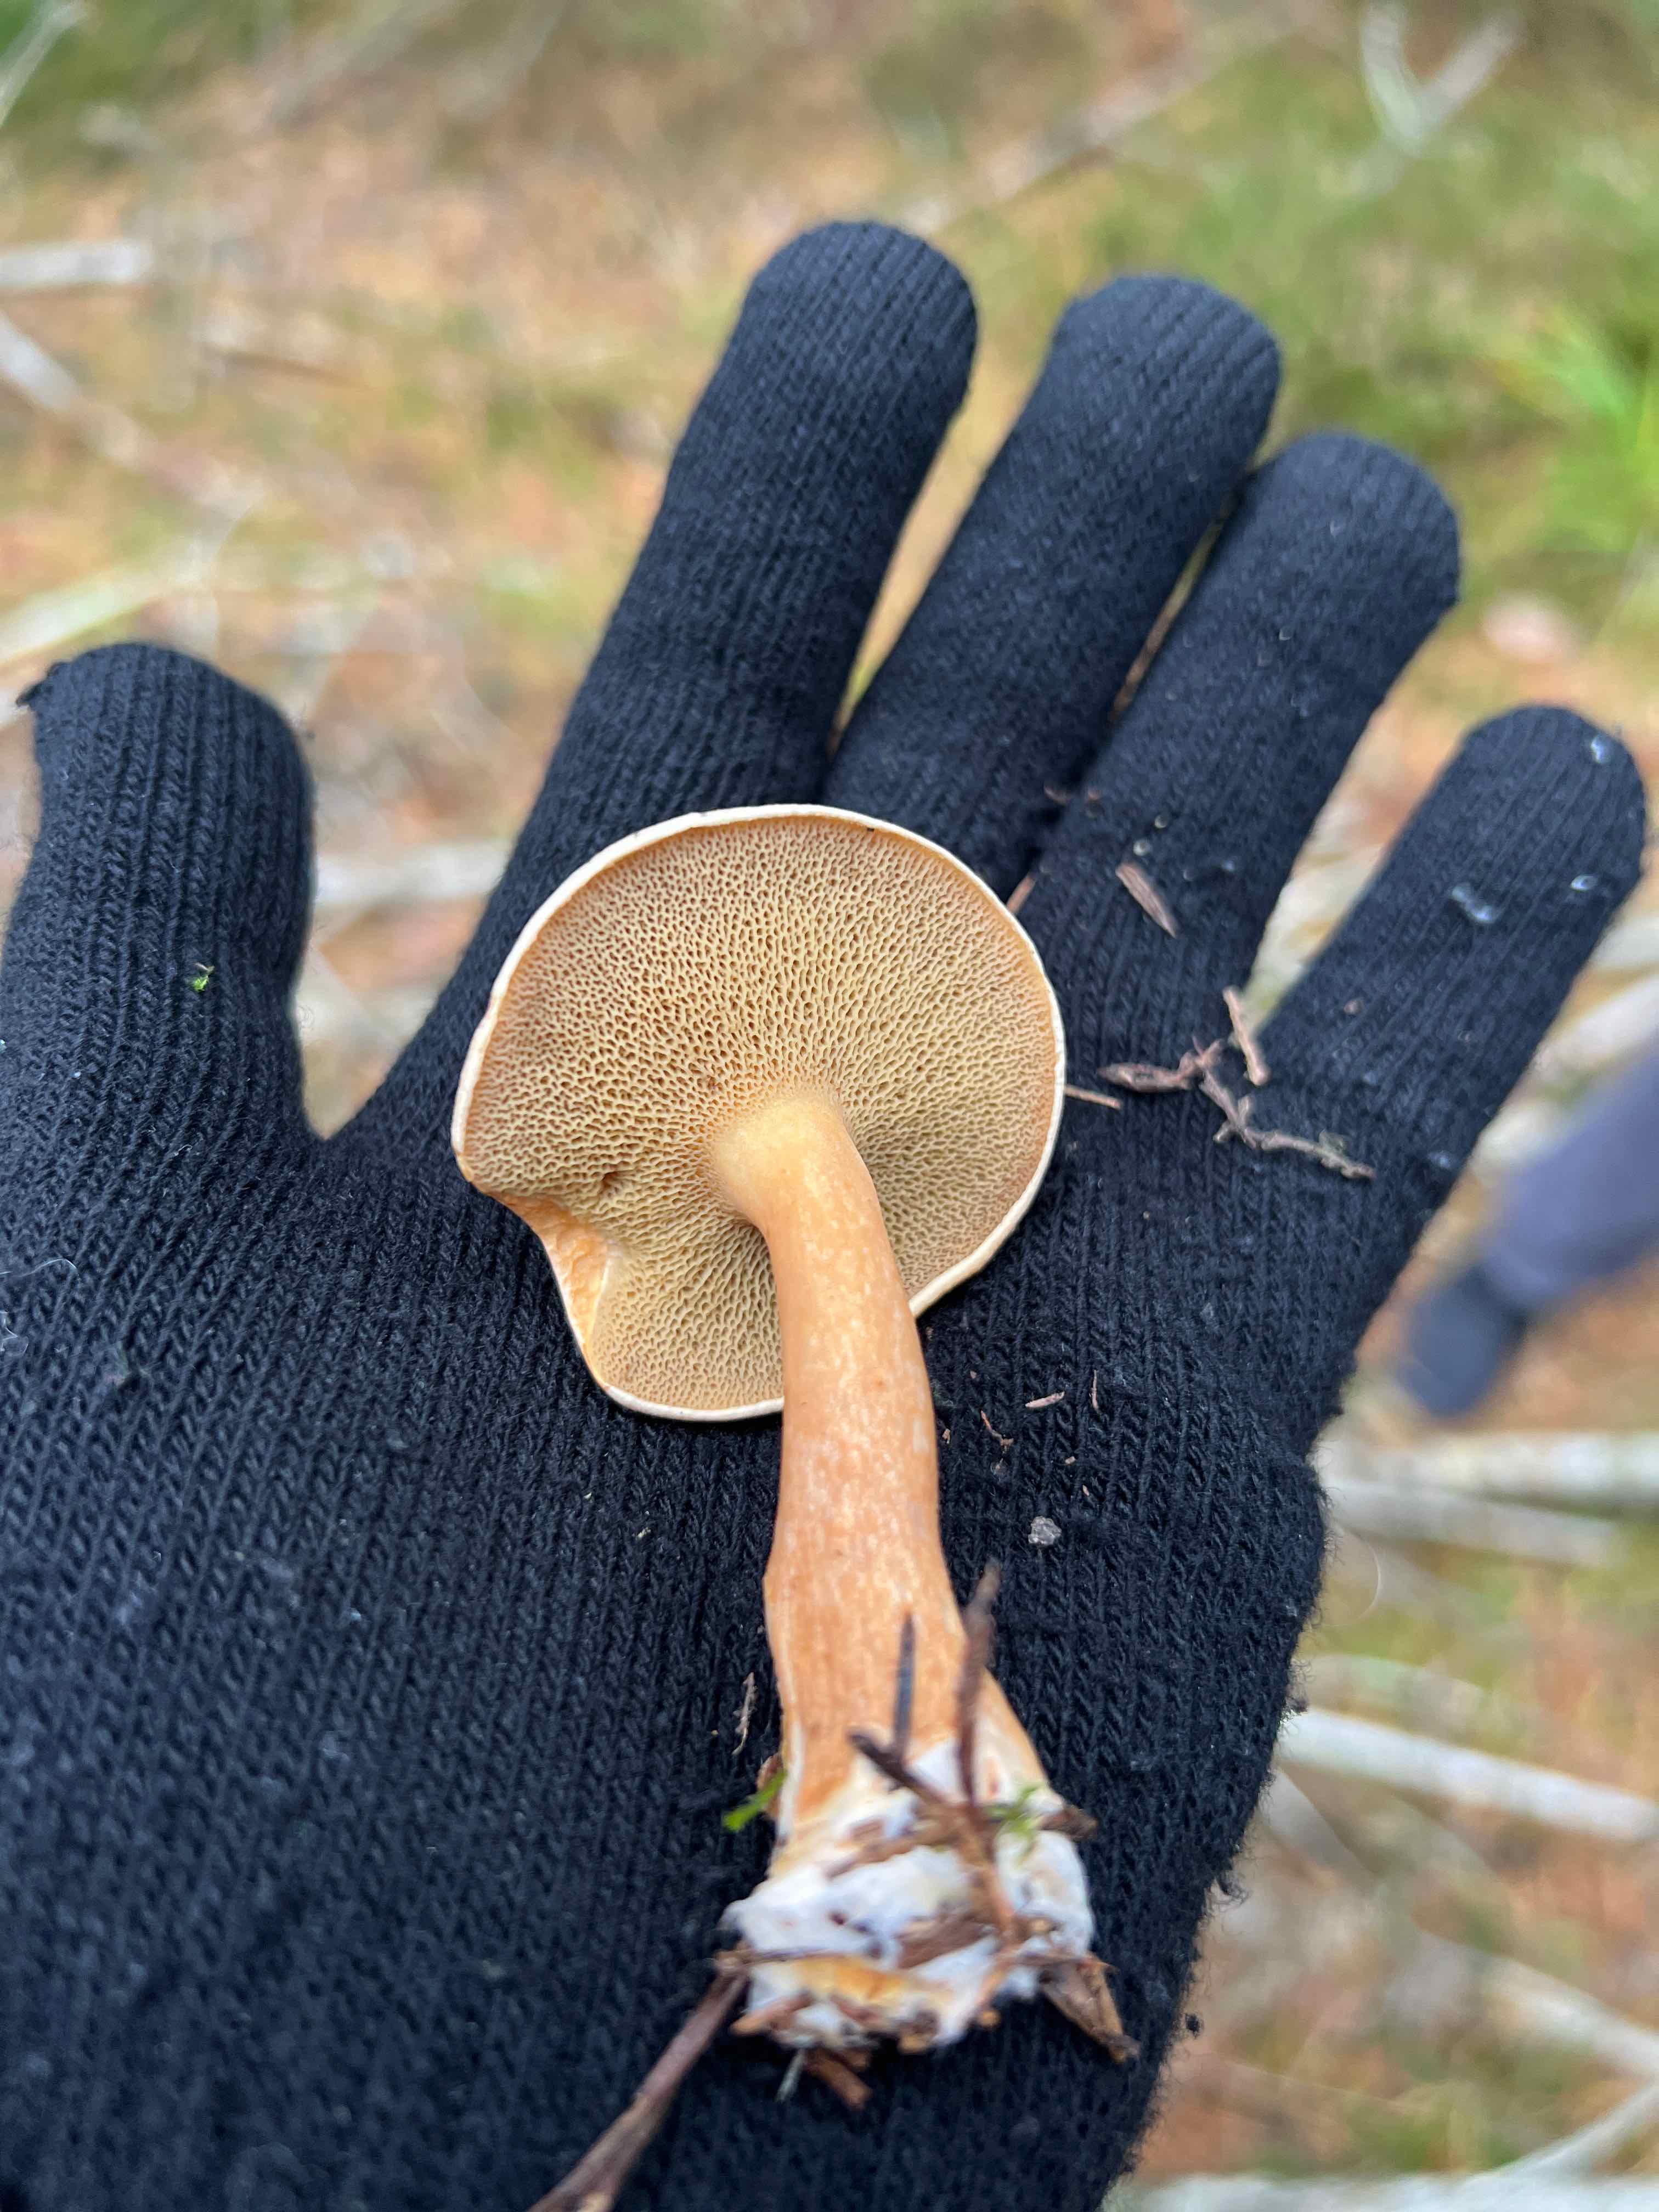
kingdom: Fungi
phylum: Basidiomycota
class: Agaricomycetes
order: Boletales
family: Suillaceae
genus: Suillus
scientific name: Suillus bovinus
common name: grovporet slimrørhat
